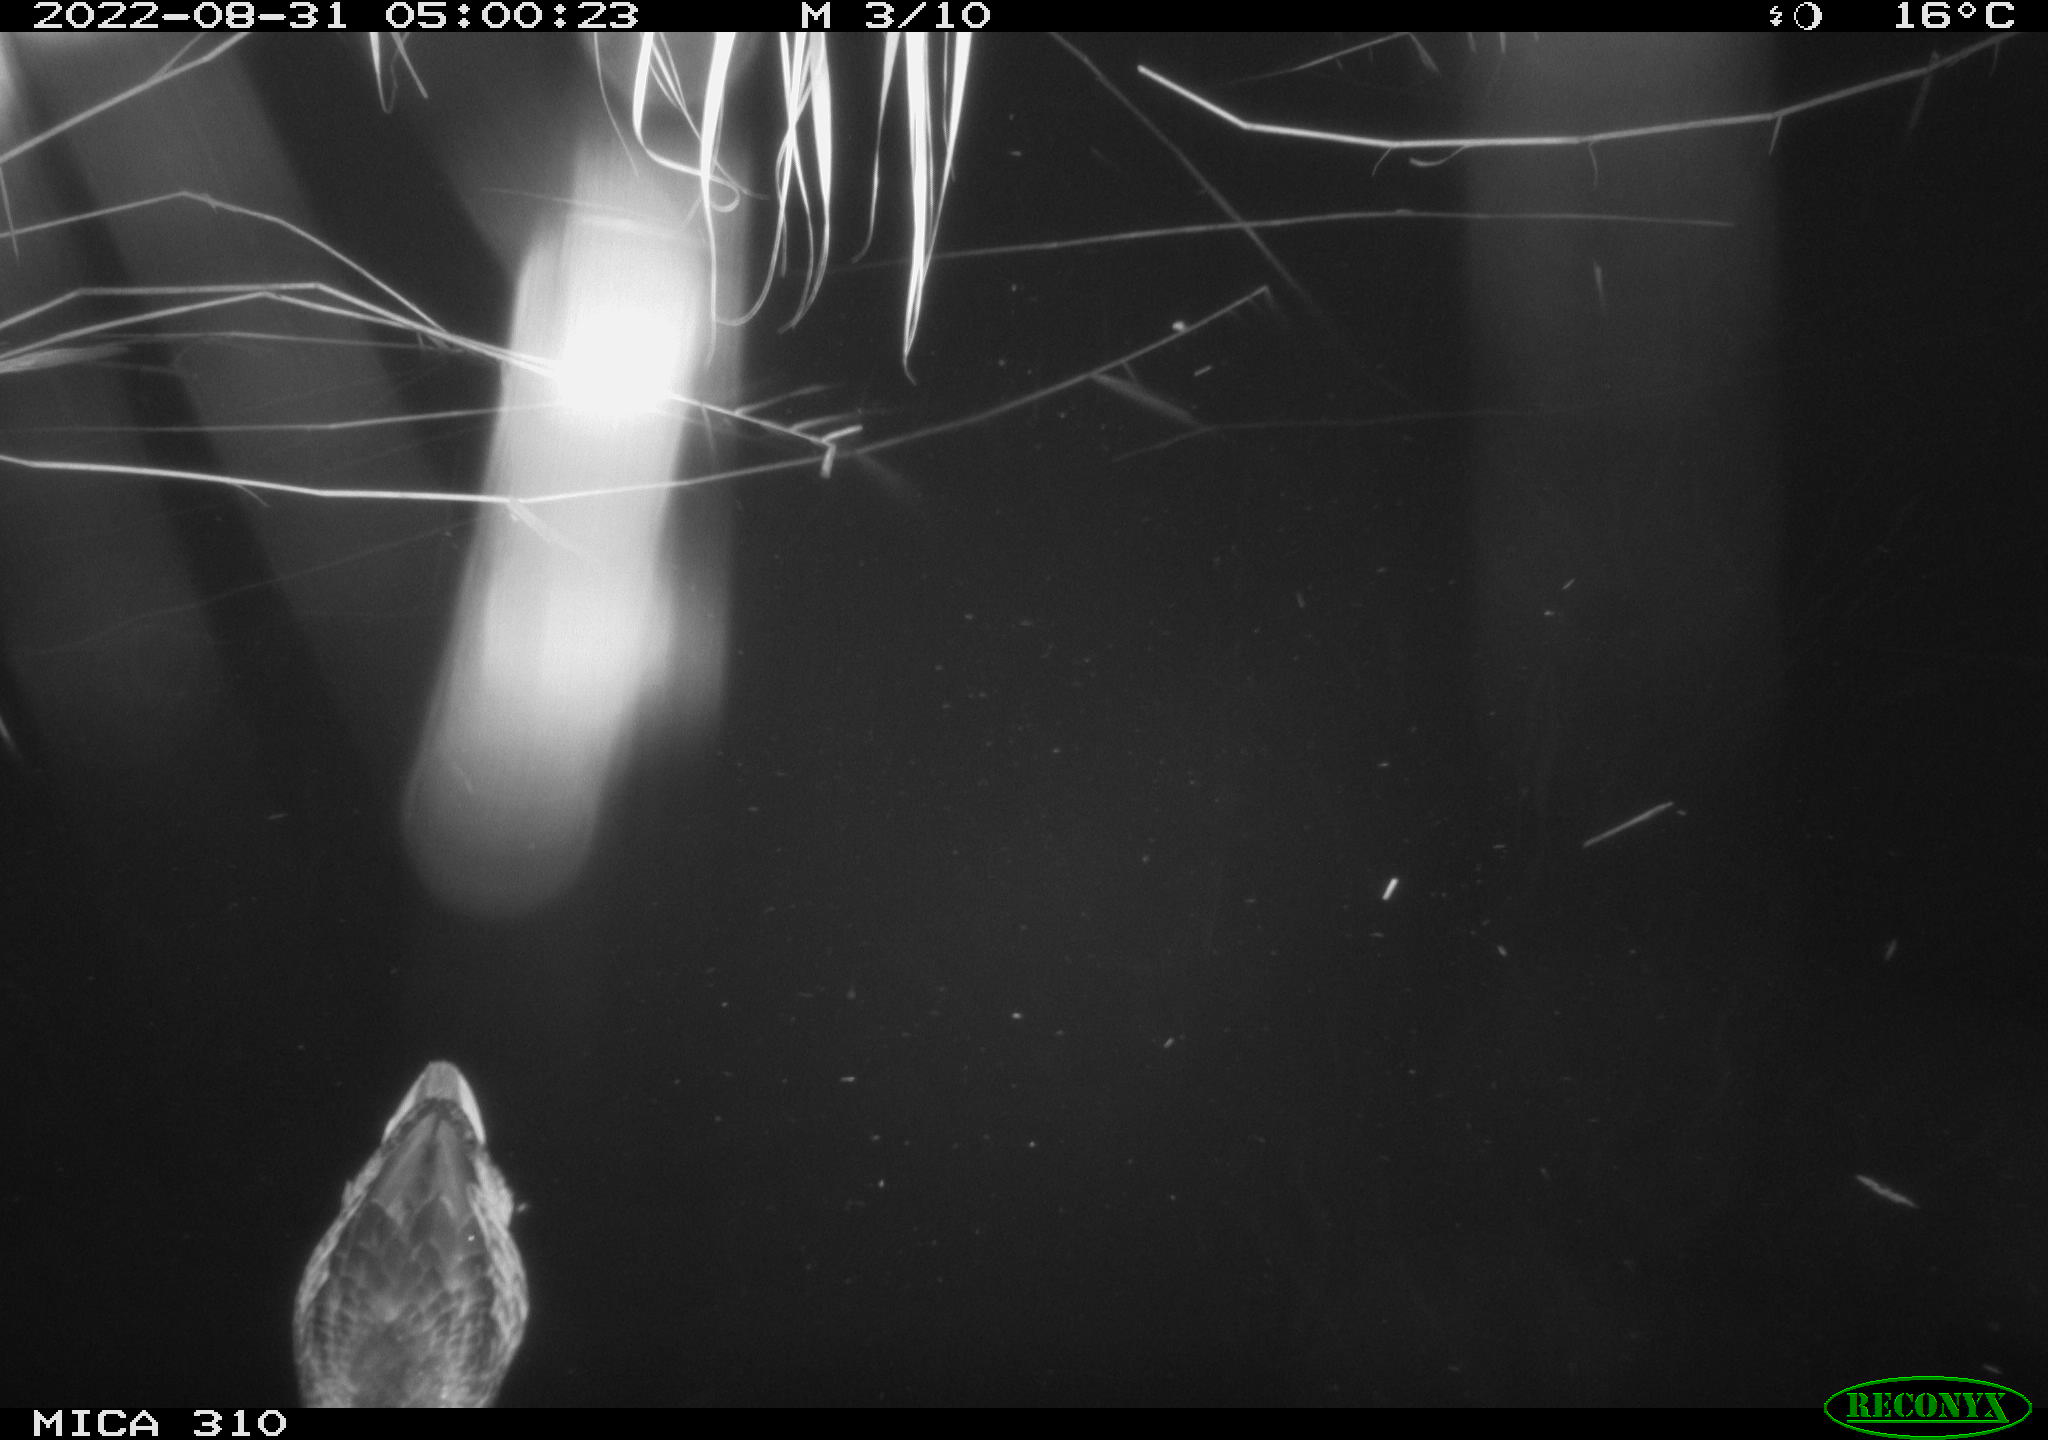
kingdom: Animalia
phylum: Chordata
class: Aves
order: Anseriformes
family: Anatidae
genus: Anas
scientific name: Anas platyrhynchos
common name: Mallard
